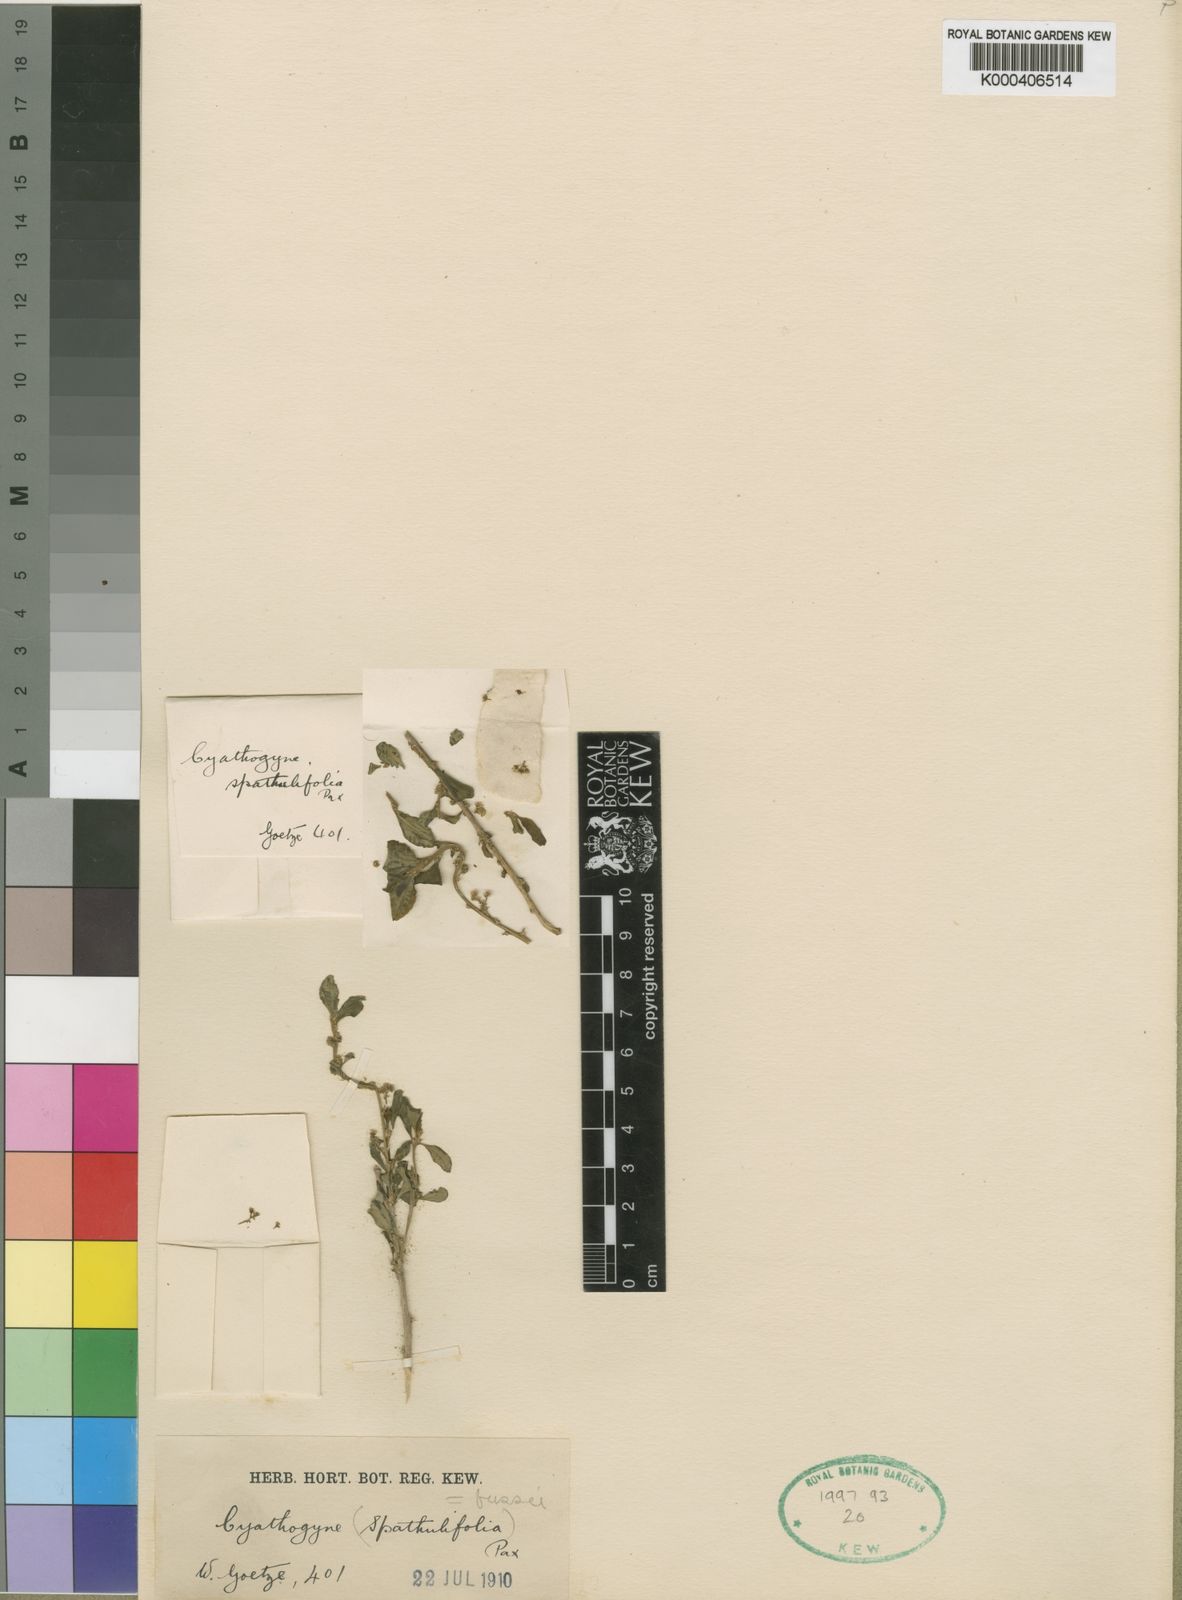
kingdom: Plantae
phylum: Tracheophyta
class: Magnoliopsida
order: Malpighiales
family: Phyllanthaceae
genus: Thecacoris
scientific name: Thecacoris spathulifolia
